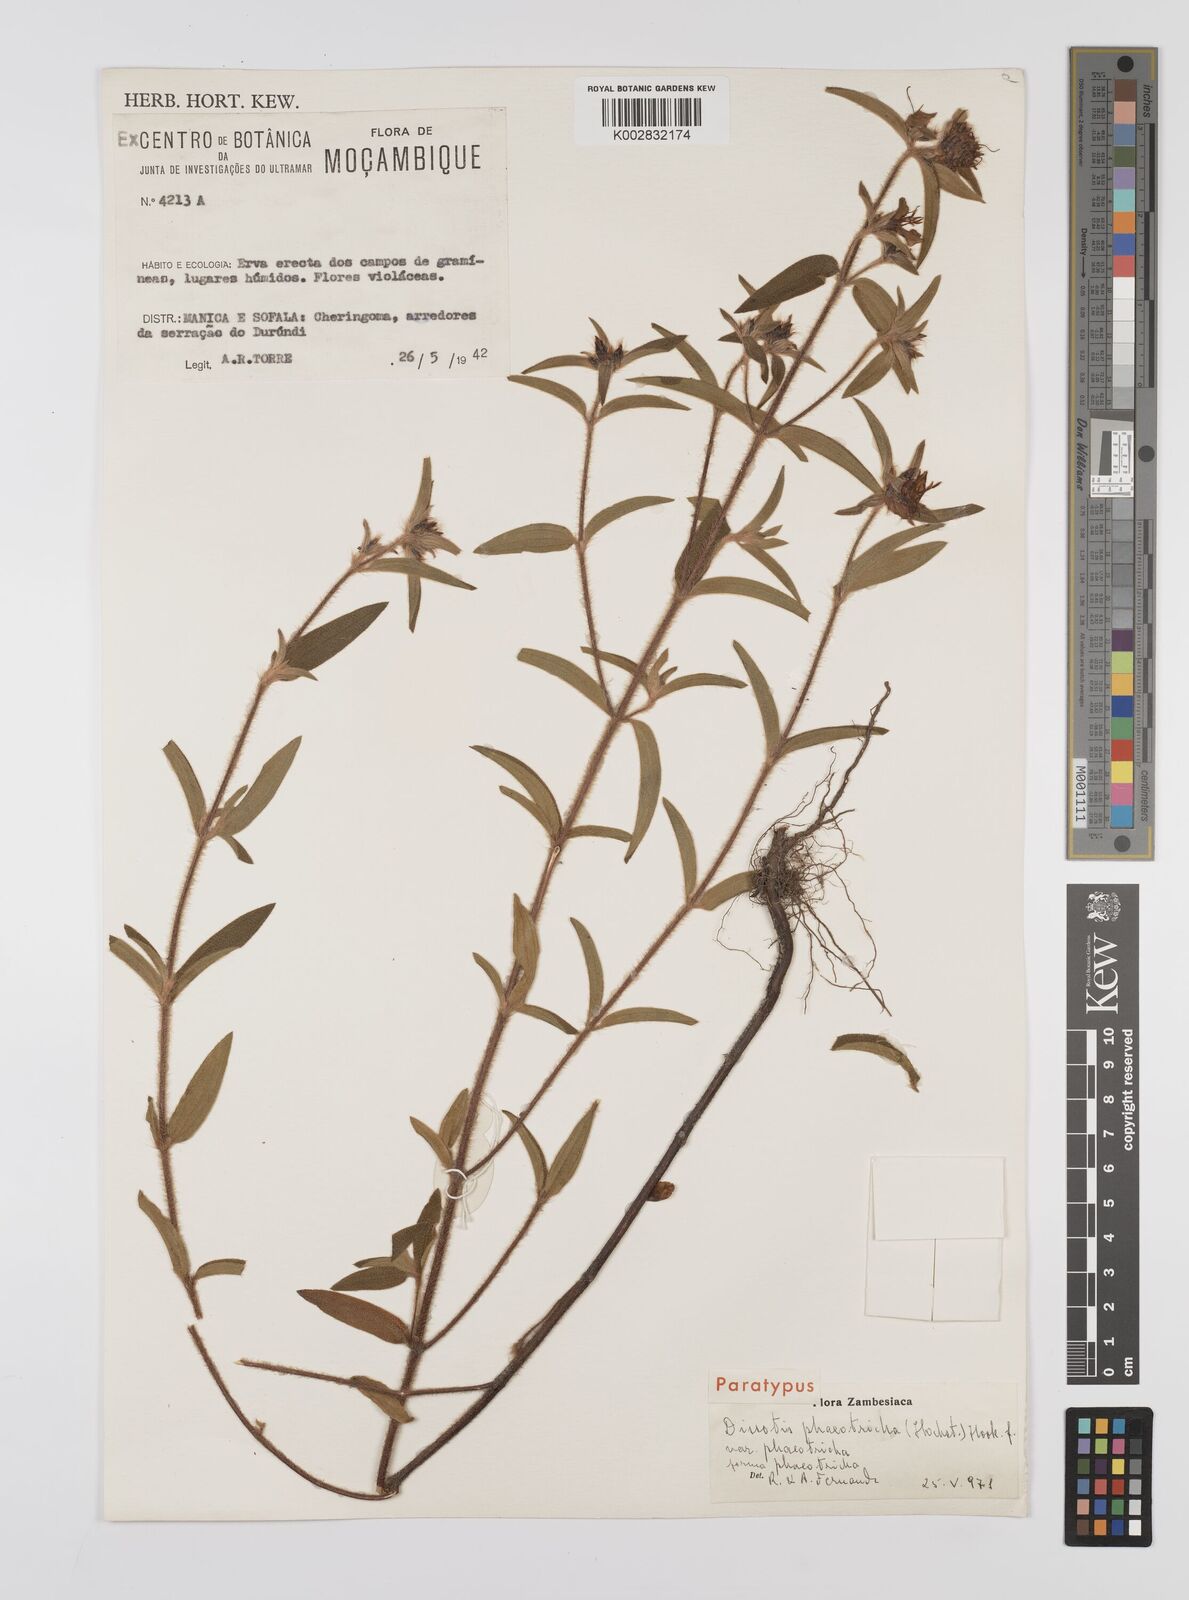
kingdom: Plantae
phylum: Tracheophyta
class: Magnoliopsida
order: Myrtales
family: Melastomataceae
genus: Antherotoma
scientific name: Antherotoma phaeotricha
